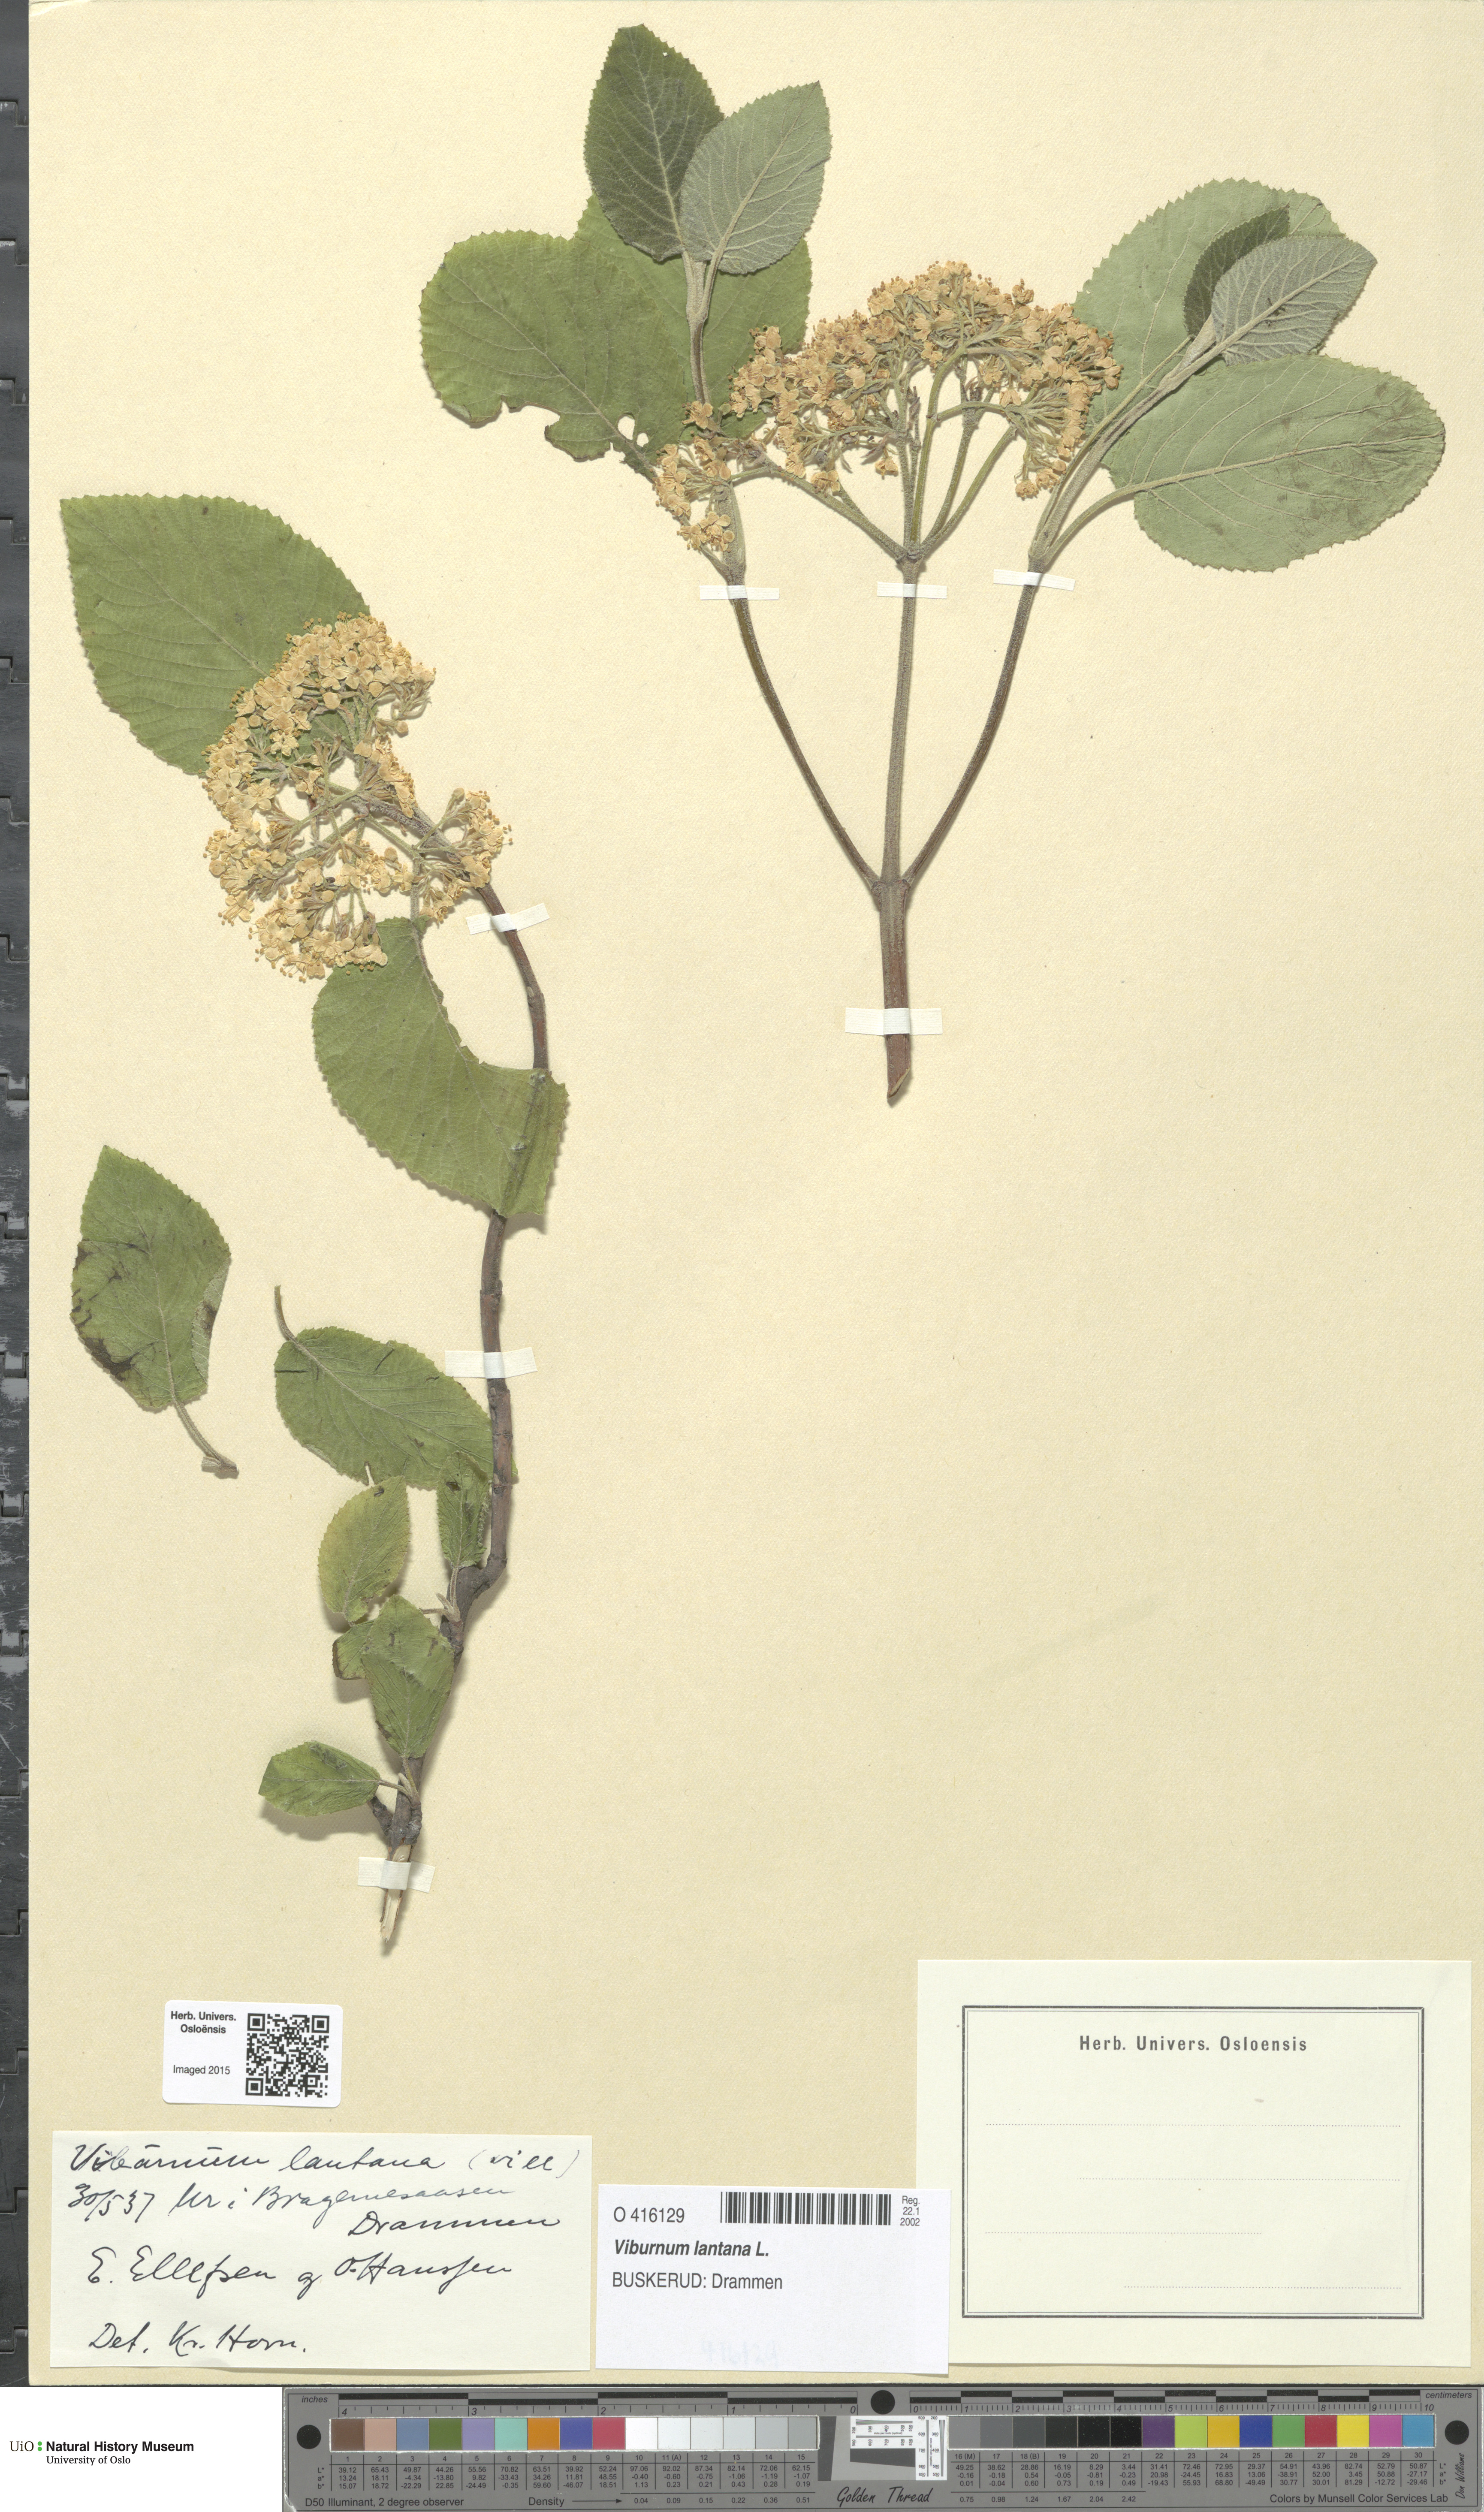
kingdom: Plantae
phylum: Tracheophyta
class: Magnoliopsida
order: Dipsacales
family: Viburnaceae
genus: Viburnum
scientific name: Viburnum lantana
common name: Wayfaring tree
